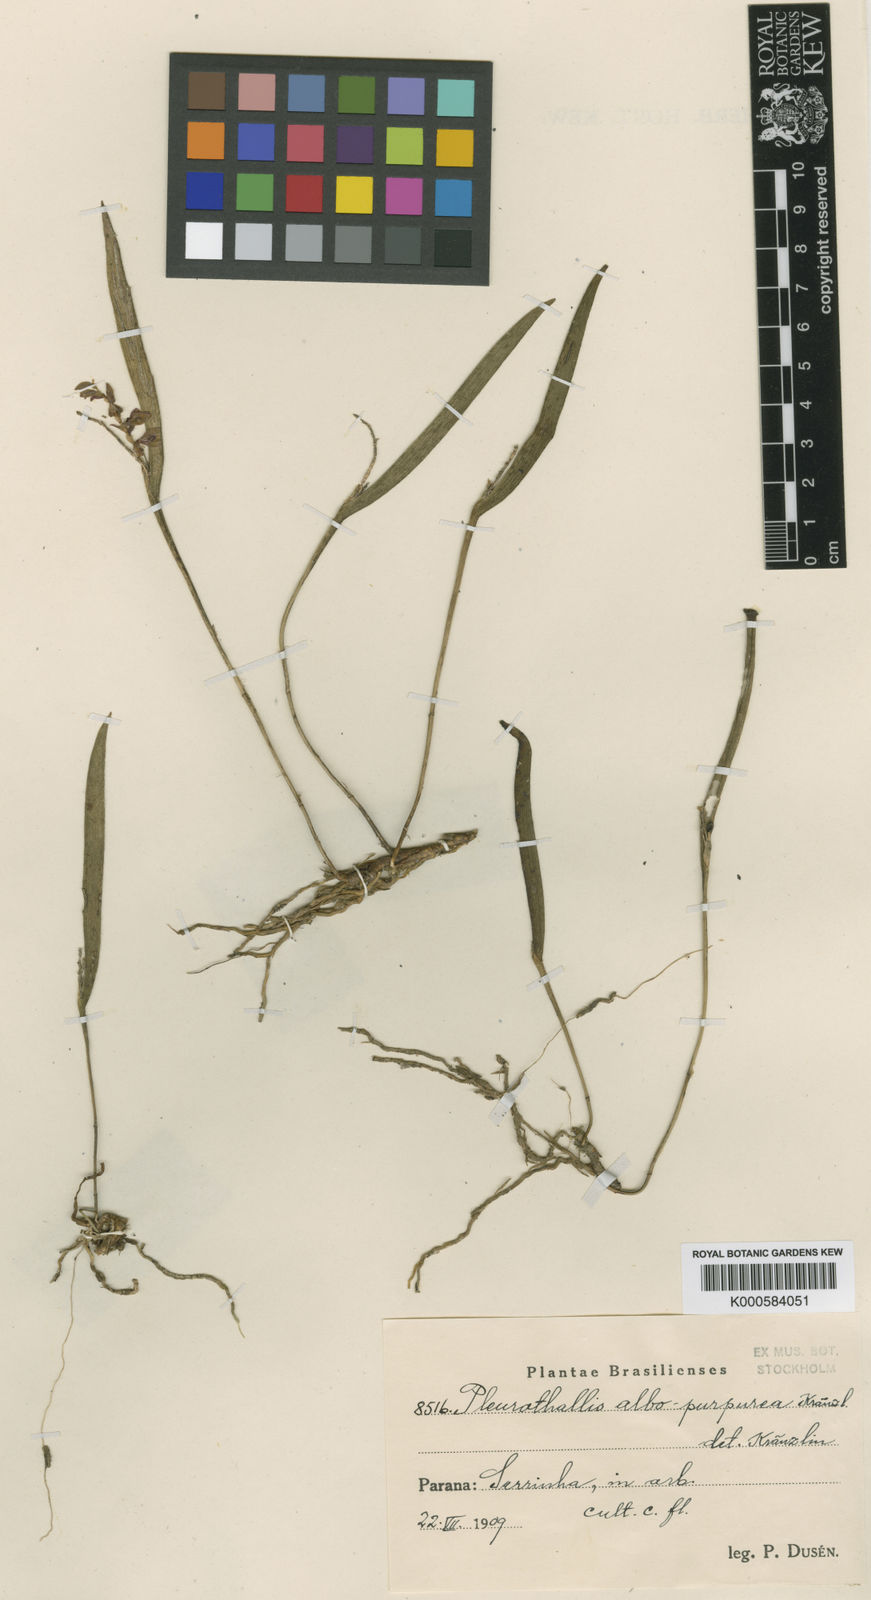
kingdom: Plantae
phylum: Tracheophyta
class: Liliopsida
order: Asparagales
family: Orchidaceae
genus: Acianthera
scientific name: Acianthera albopurpurea
